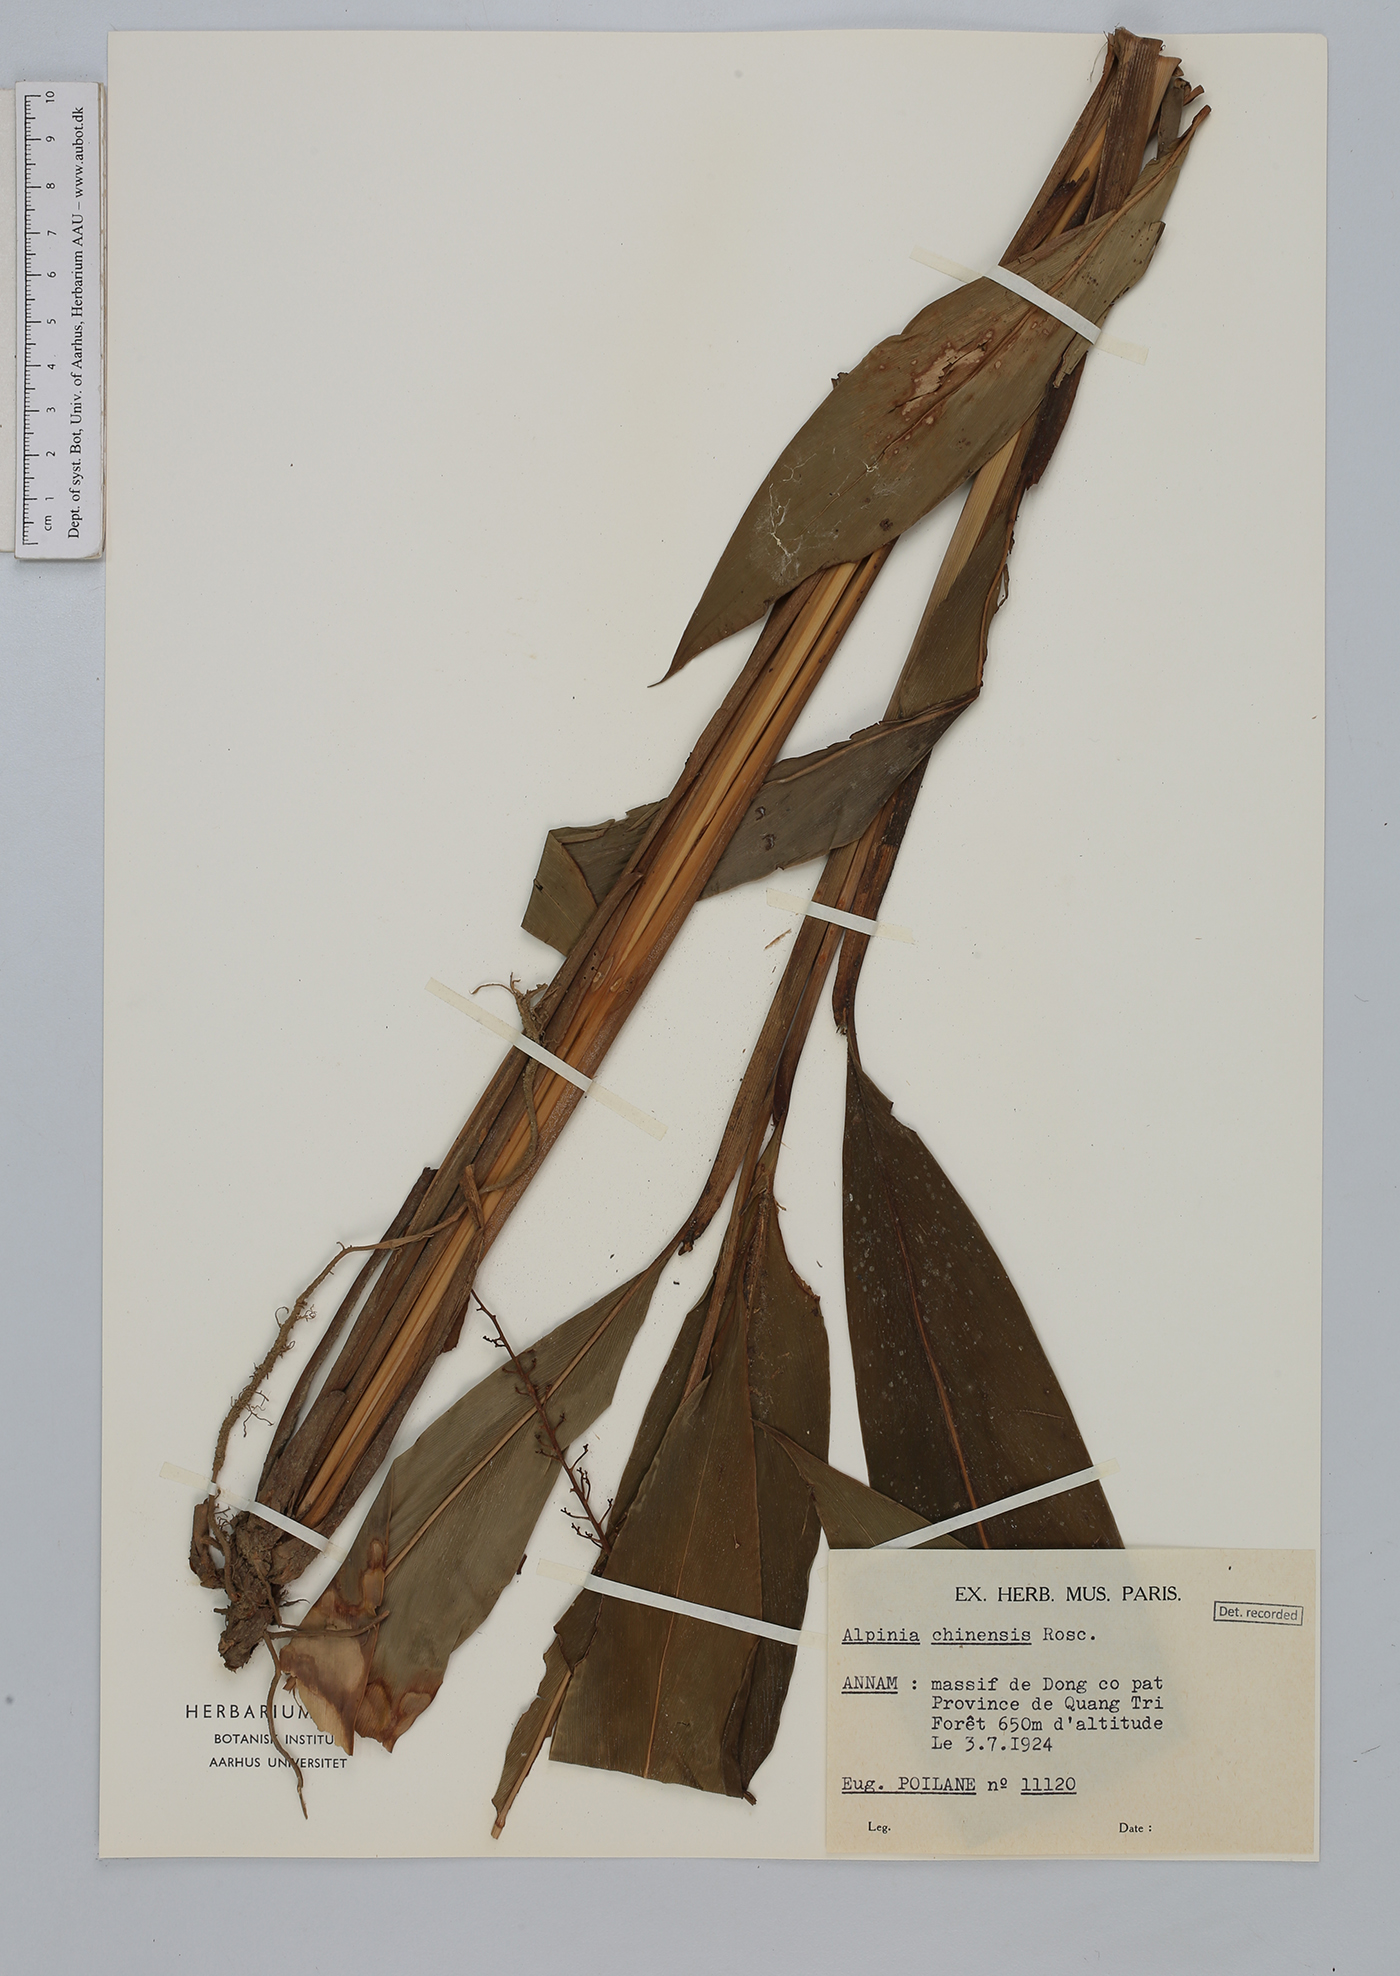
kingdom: Plantae
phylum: Tracheophyta
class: Liliopsida
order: Zingiberales
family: Zingiberaceae
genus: Alpinia
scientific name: Alpinia chinensis
